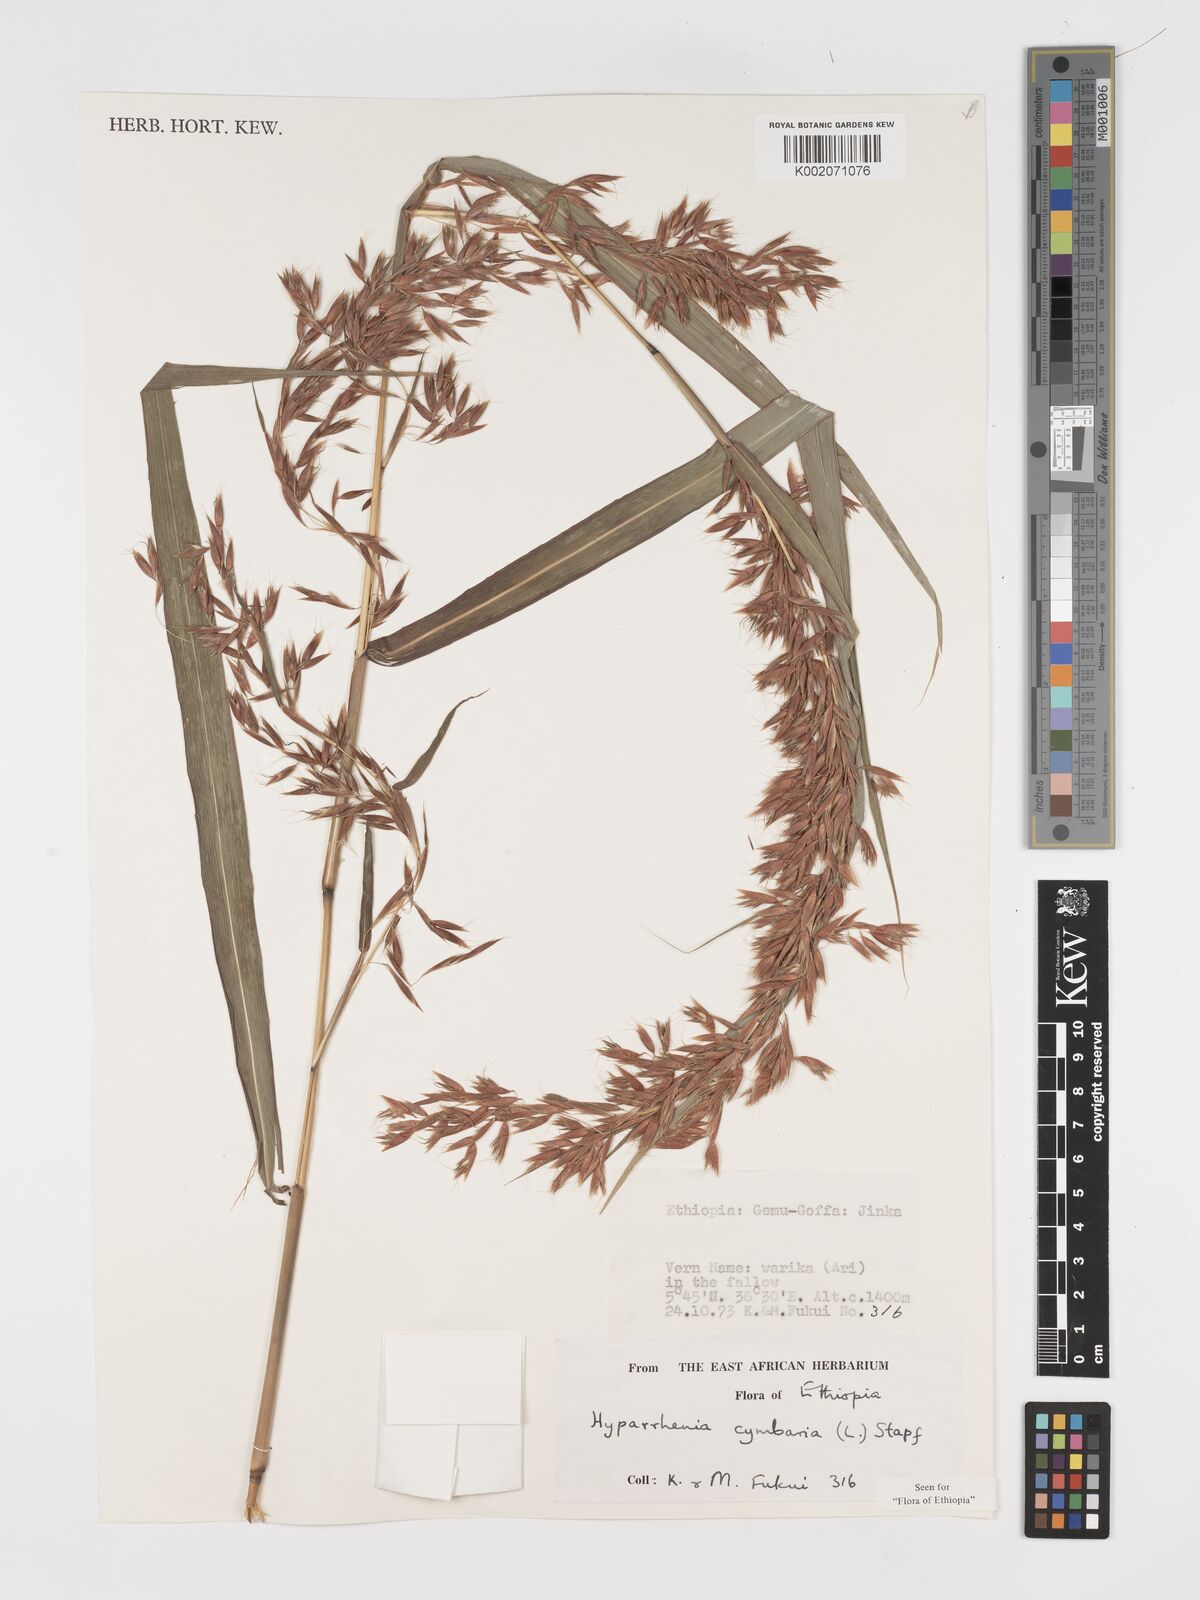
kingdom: Plantae
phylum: Tracheophyta
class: Liliopsida
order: Poales
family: Poaceae
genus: Hyparrhenia
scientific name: Hyparrhenia cymbaria
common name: Boat thatching grass
